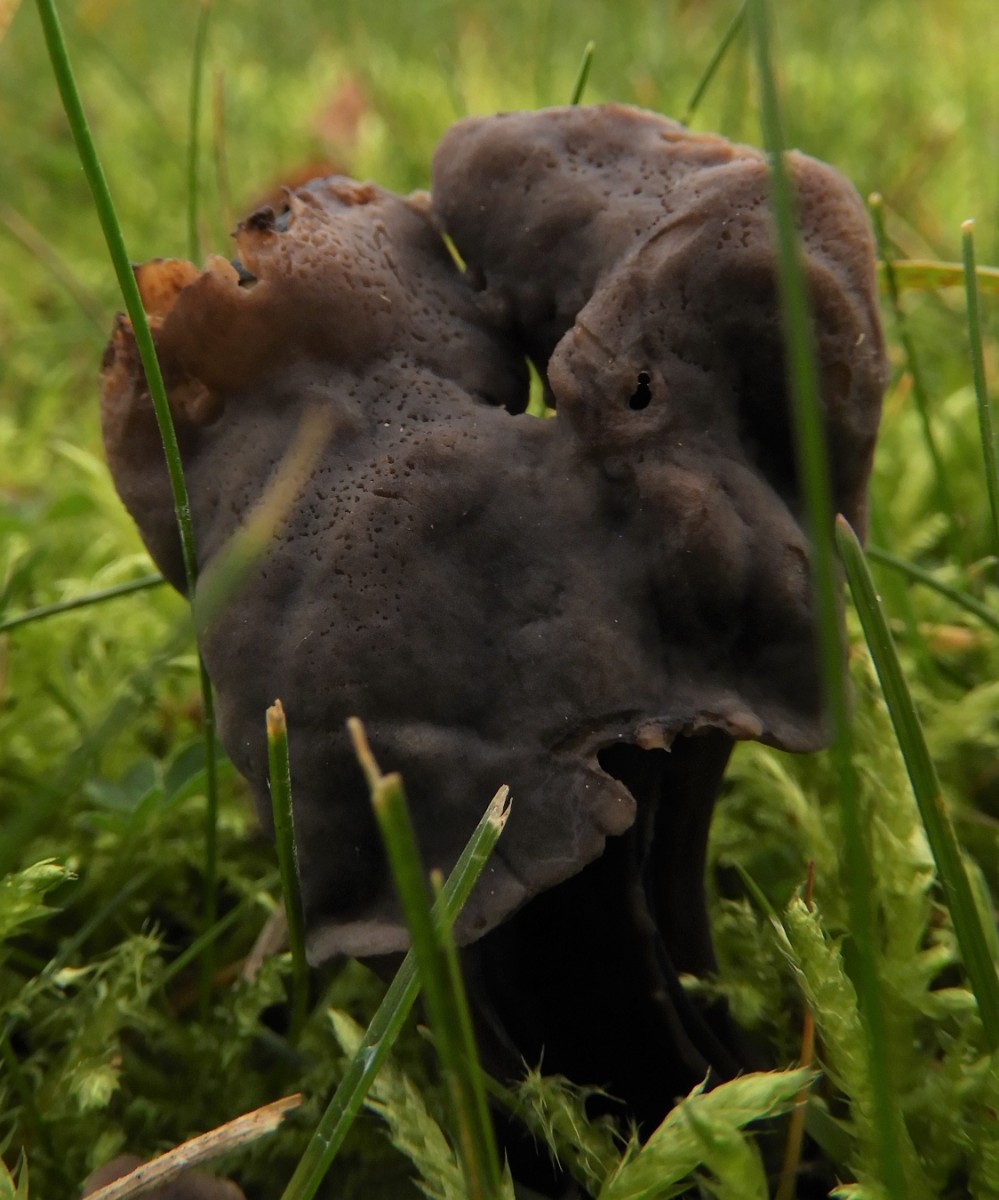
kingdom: Fungi
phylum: Ascomycota
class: Pezizomycetes
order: Pezizales
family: Helvellaceae
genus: Helvella
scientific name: Helvella lacunosa
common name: grubet foldhat
